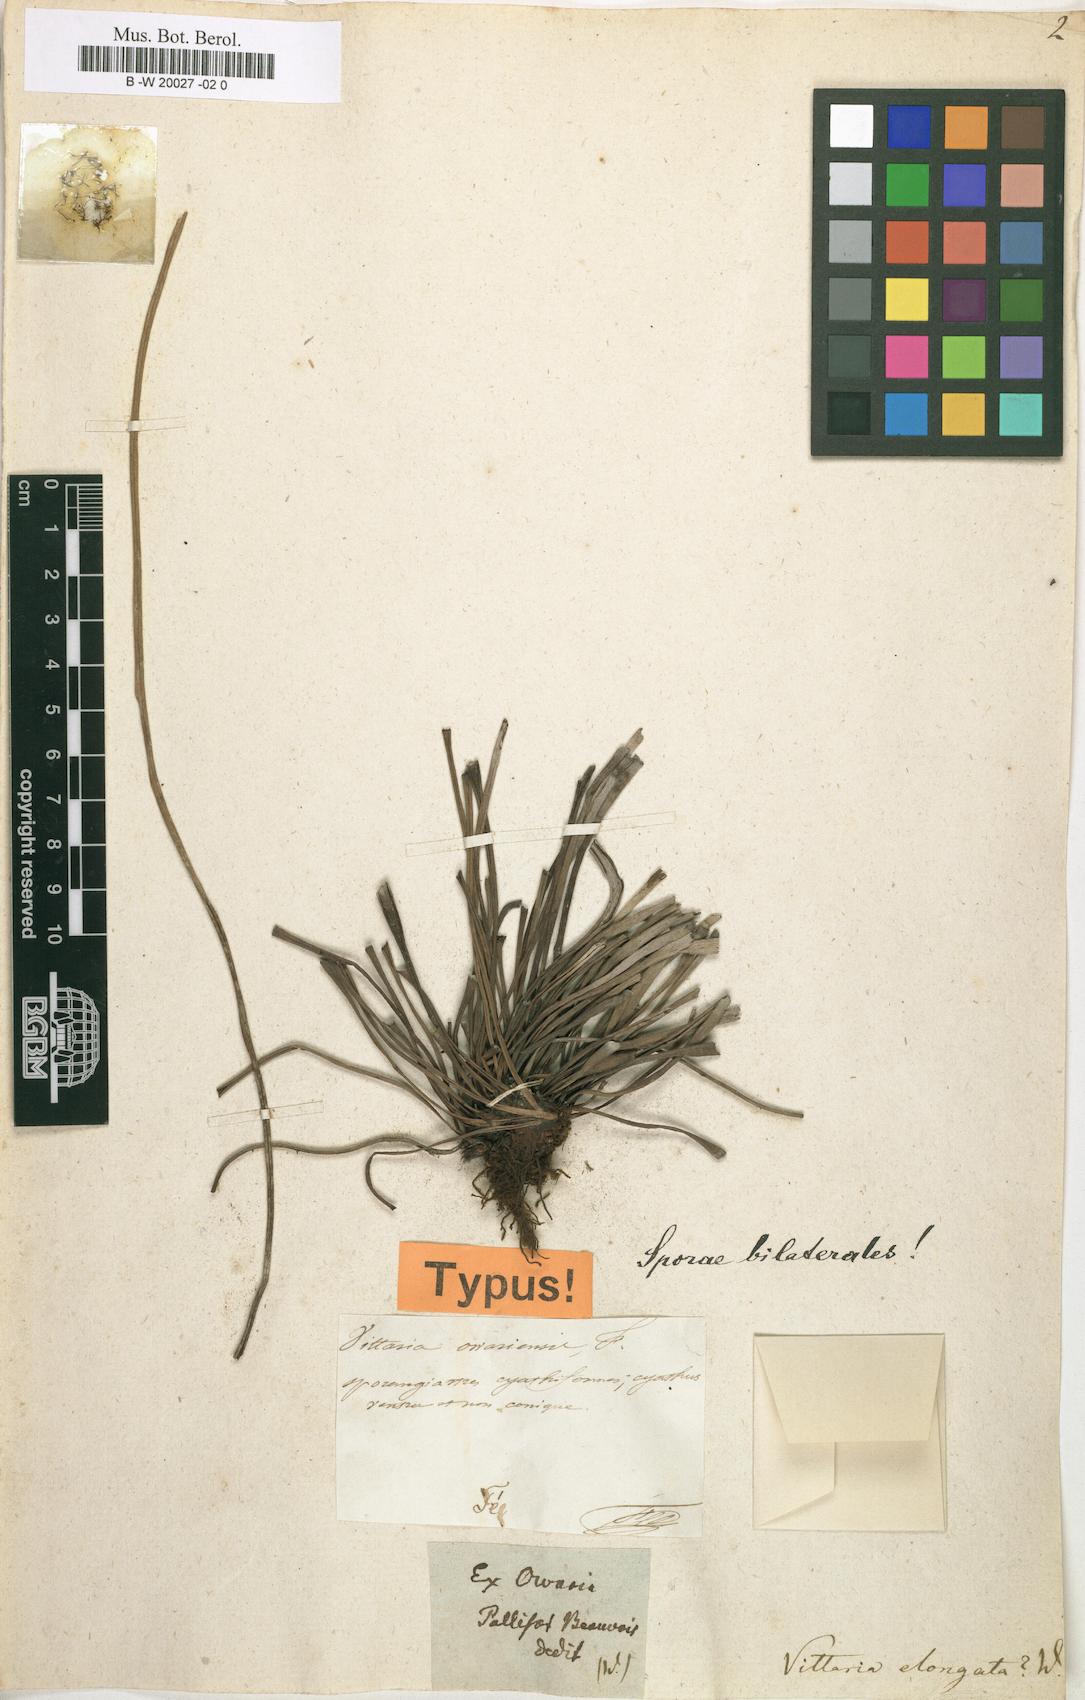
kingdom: Plantae
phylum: Tracheophyta
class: Polypodiopsida
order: Polypodiales
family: Pteridaceae
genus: Haplopteris
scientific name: Haplopteris elongata
